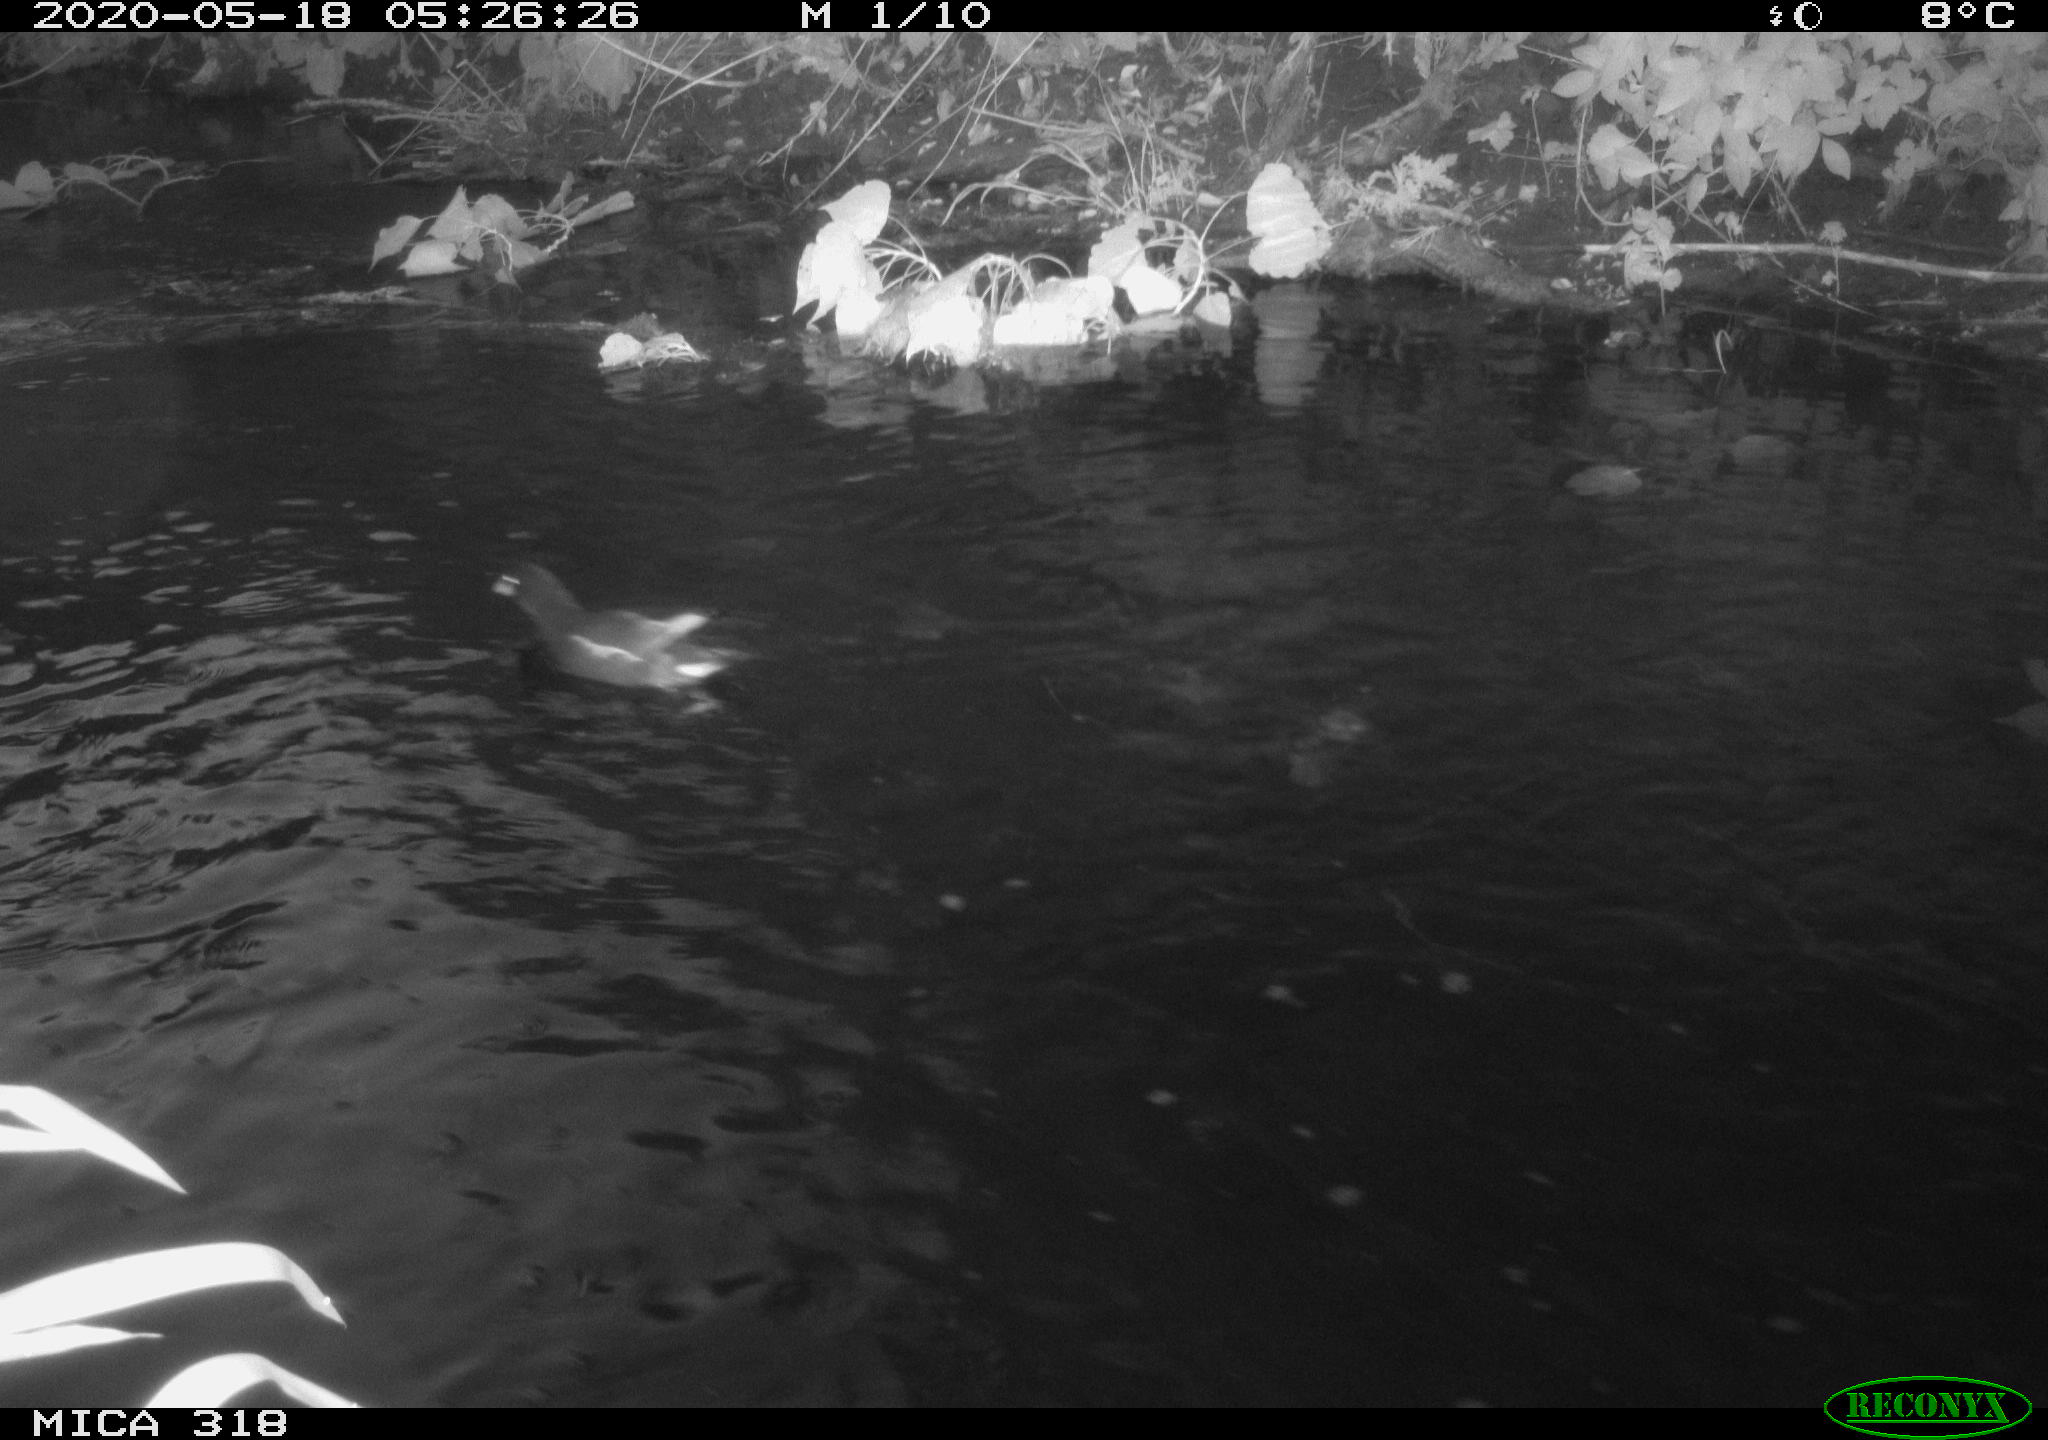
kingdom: Animalia
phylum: Chordata
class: Aves
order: Gruiformes
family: Rallidae
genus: Gallinula
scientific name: Gallinula chloropus
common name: Common moorhen
